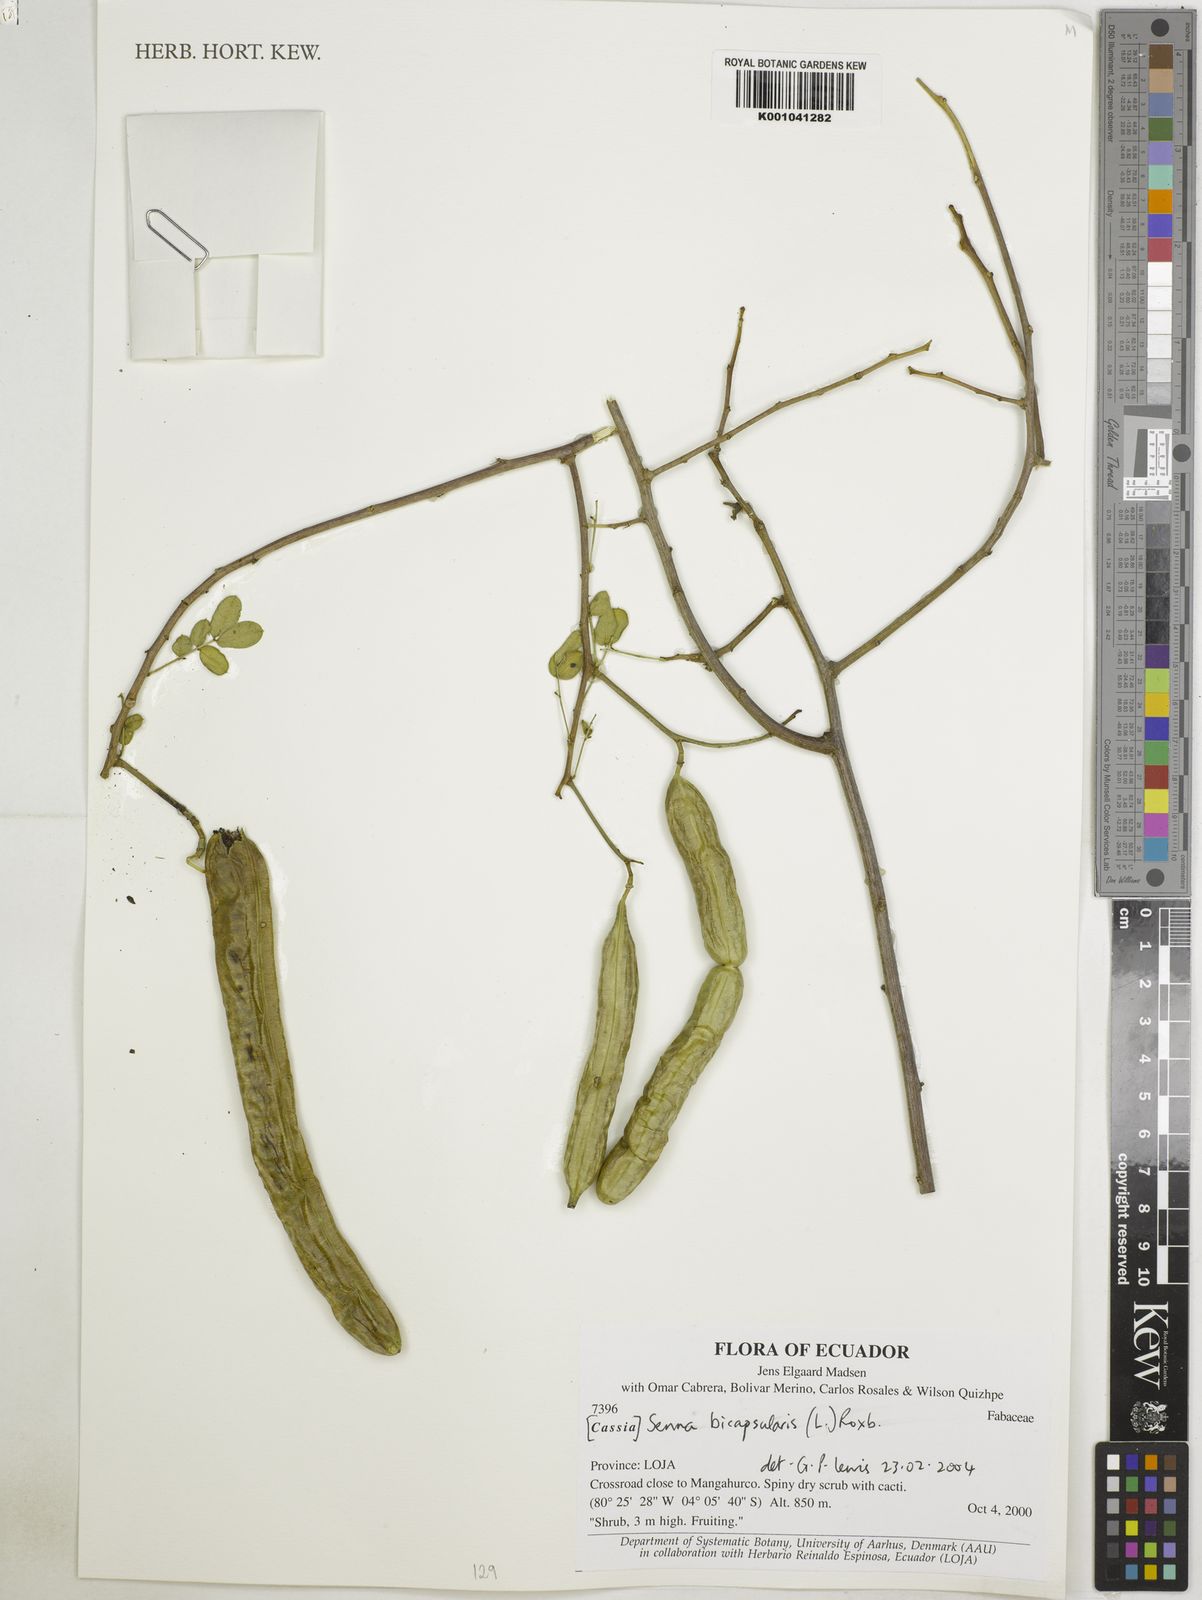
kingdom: Plantae
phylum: Tracheophyta
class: Magnoliopsida
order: Fabales
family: Fabaceae
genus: Senna
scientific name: Senna bicapsularis
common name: Christmasbush
